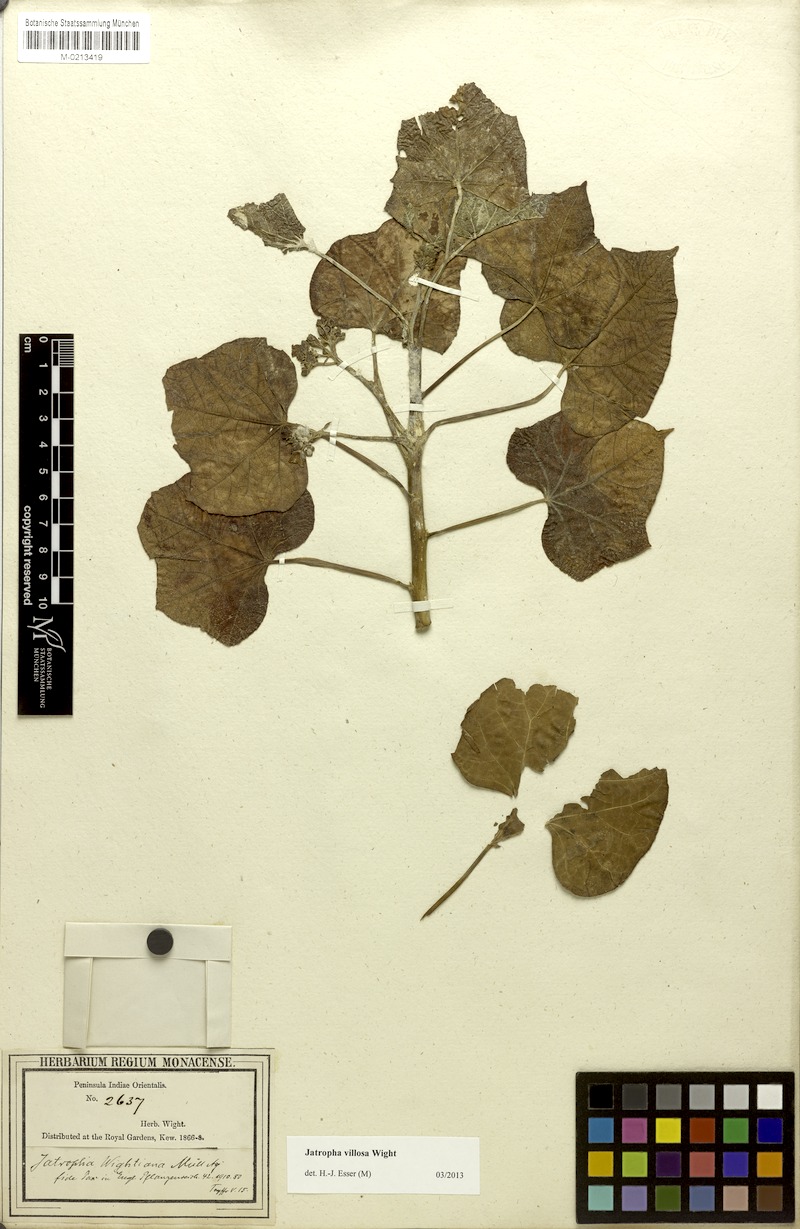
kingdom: Plantae
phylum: Tracheophyta
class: Magnoliopsida
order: Malpighiales
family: Euphorbiaceae
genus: Jatropha
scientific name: Jatropha villosa
